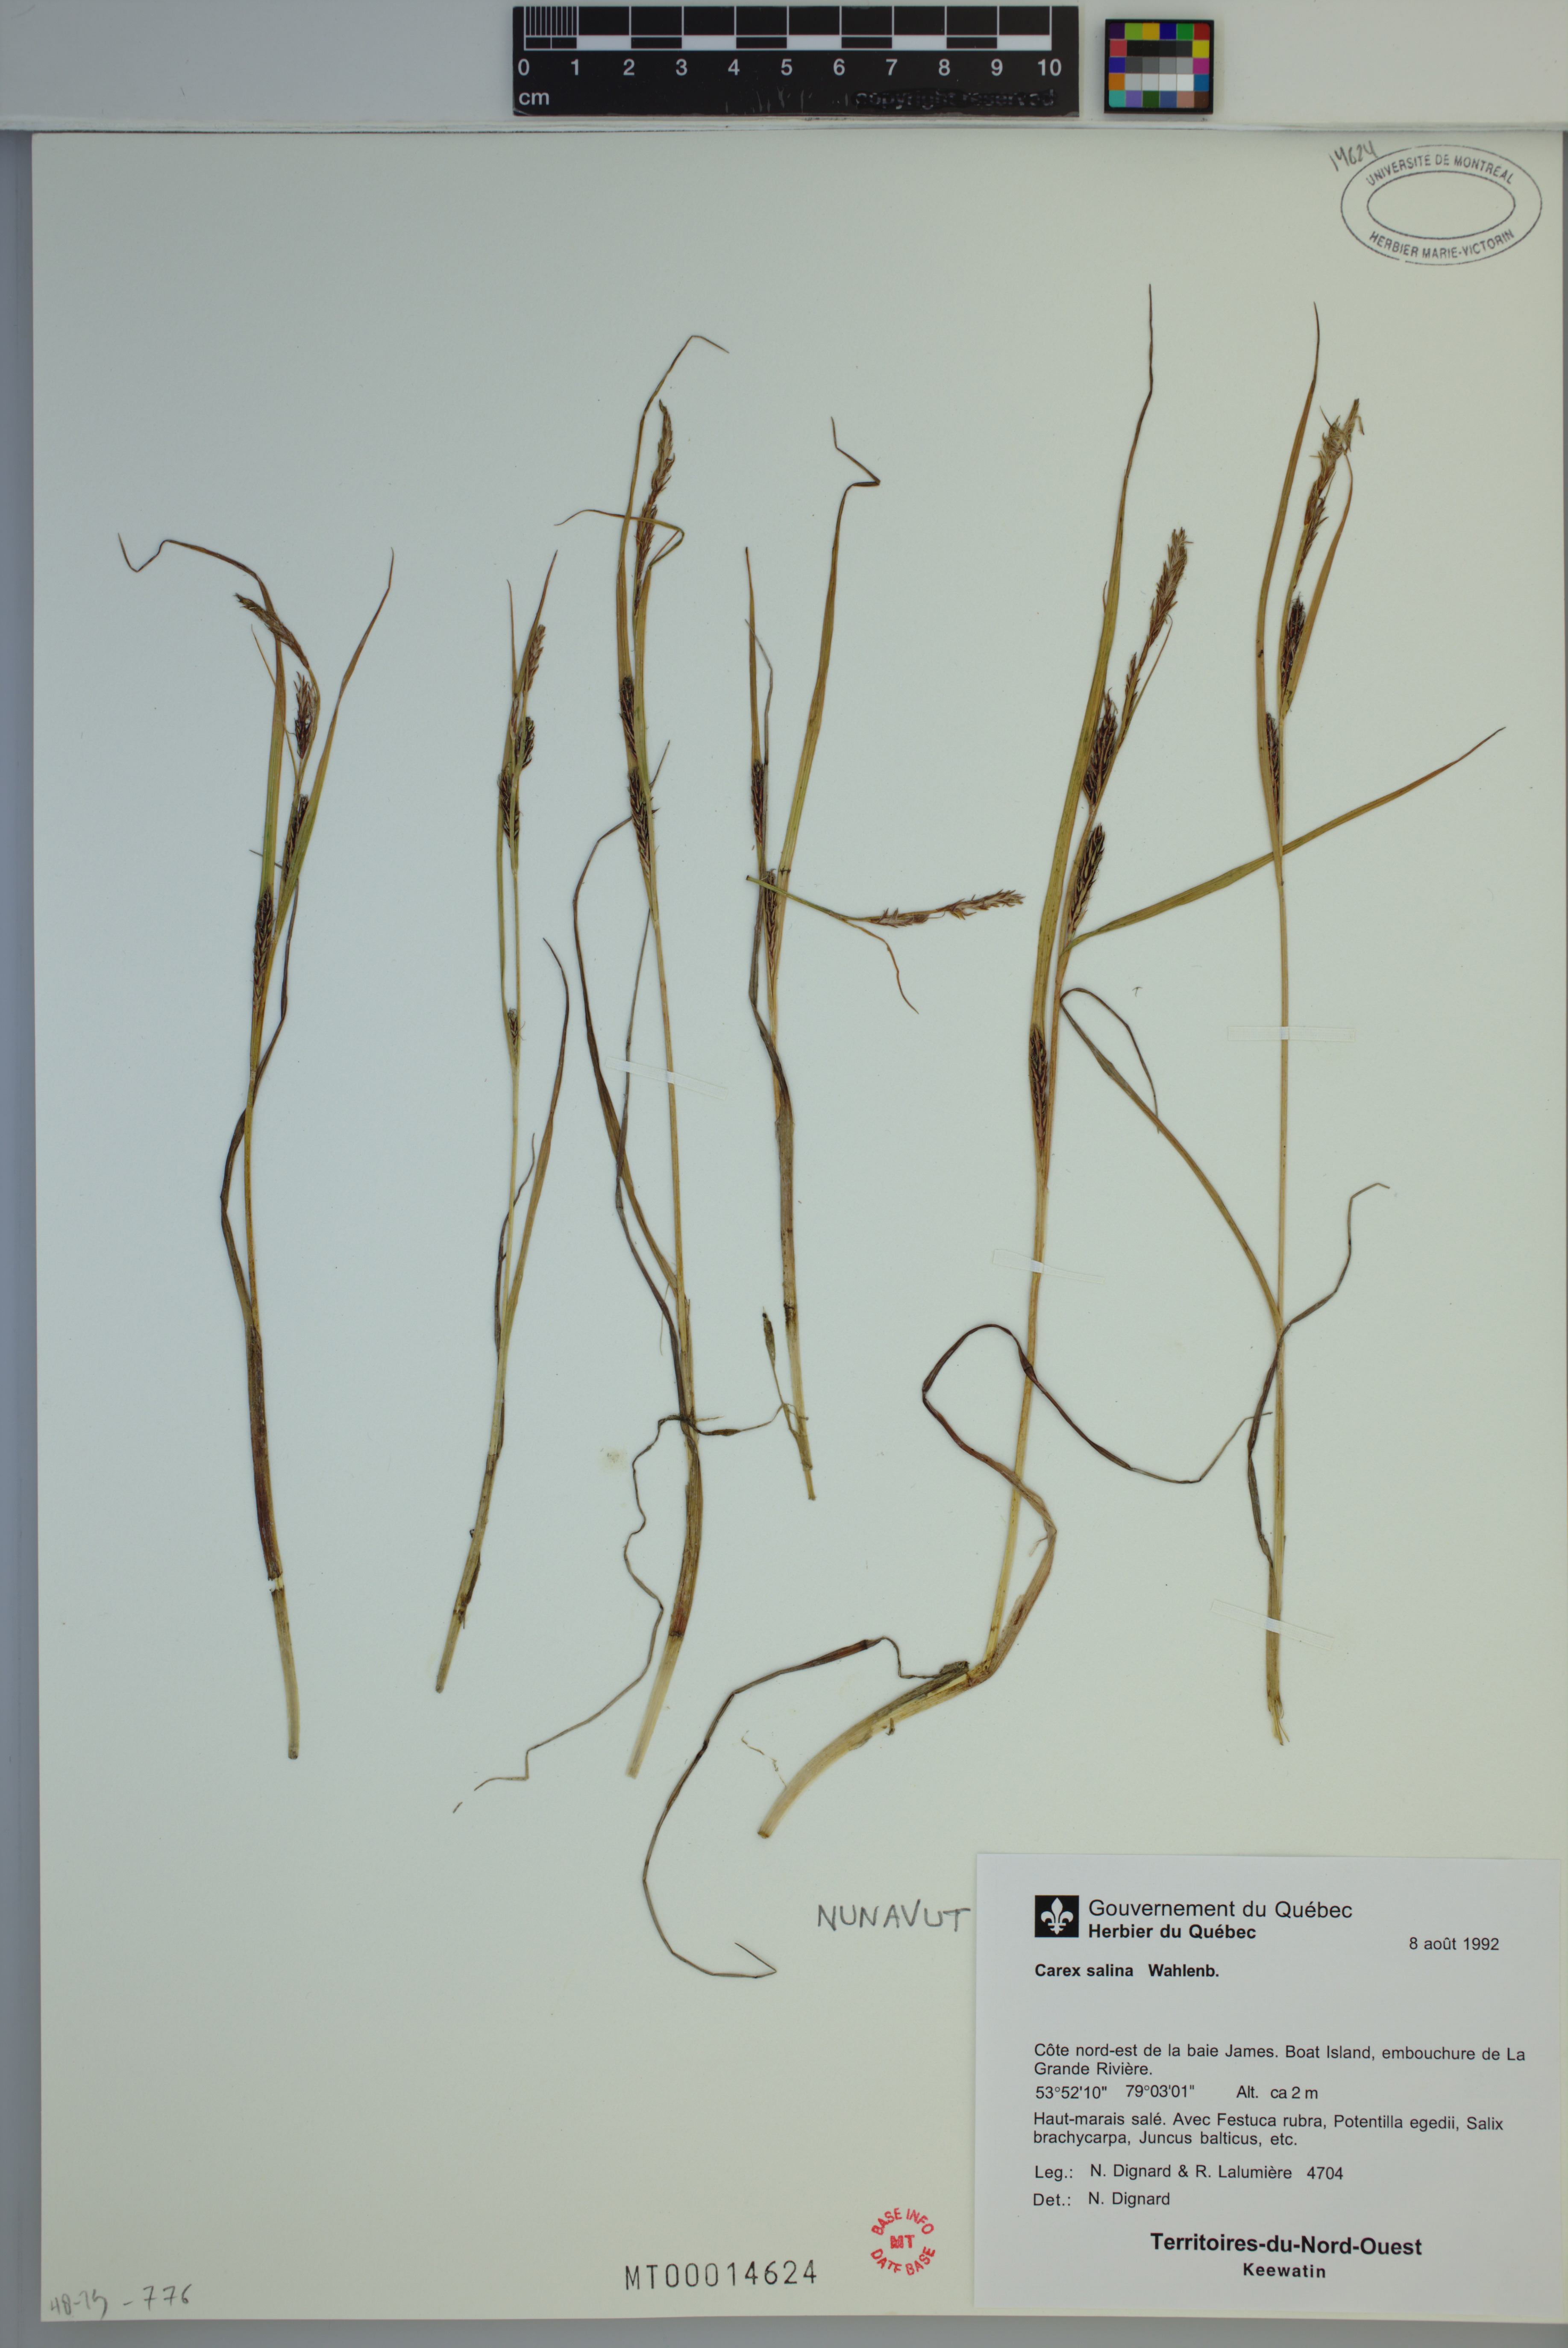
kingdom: Plantae
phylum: Tracheophyta
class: Liliopsida
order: Poales
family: Cyperaceae
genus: Carex
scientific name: Carex salina
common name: Saltmarsh sedge
